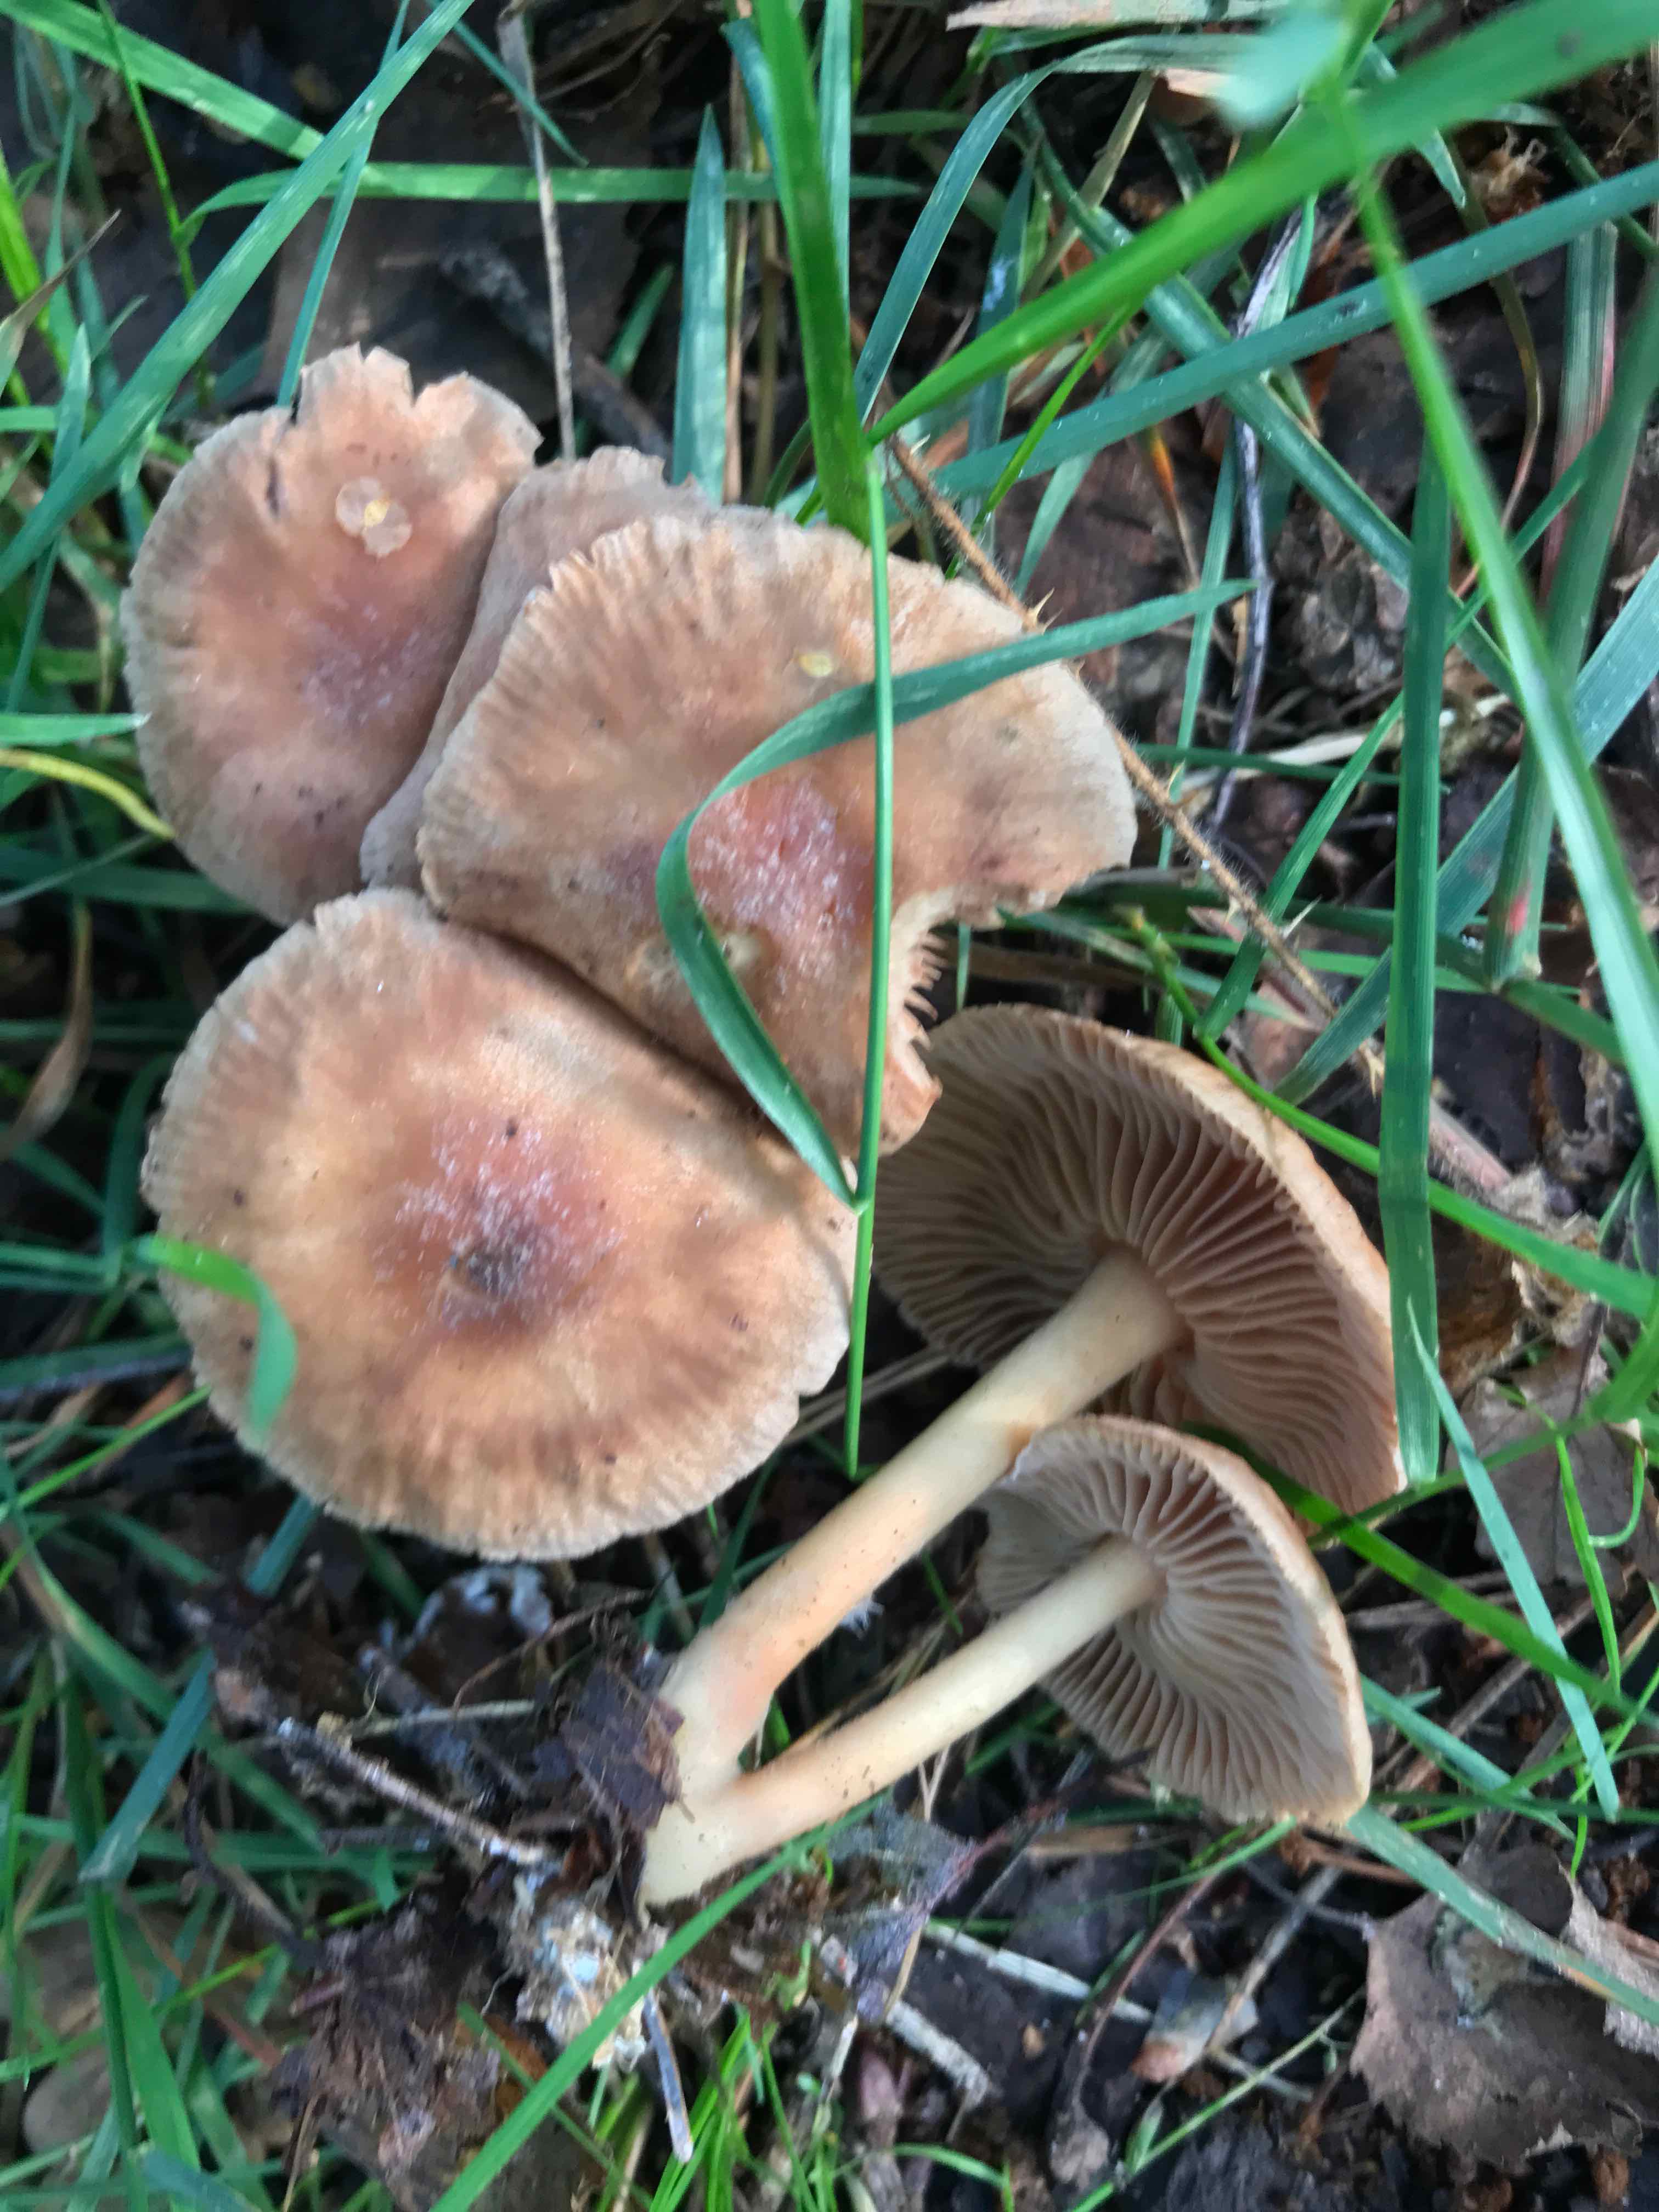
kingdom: Fungi
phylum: Basidiomycota
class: Agaricomycetes
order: Agaricales
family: Omphalotaceae
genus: Collybiopsis
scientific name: Collybiopsis peronata
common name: bestøvlet fladhat
